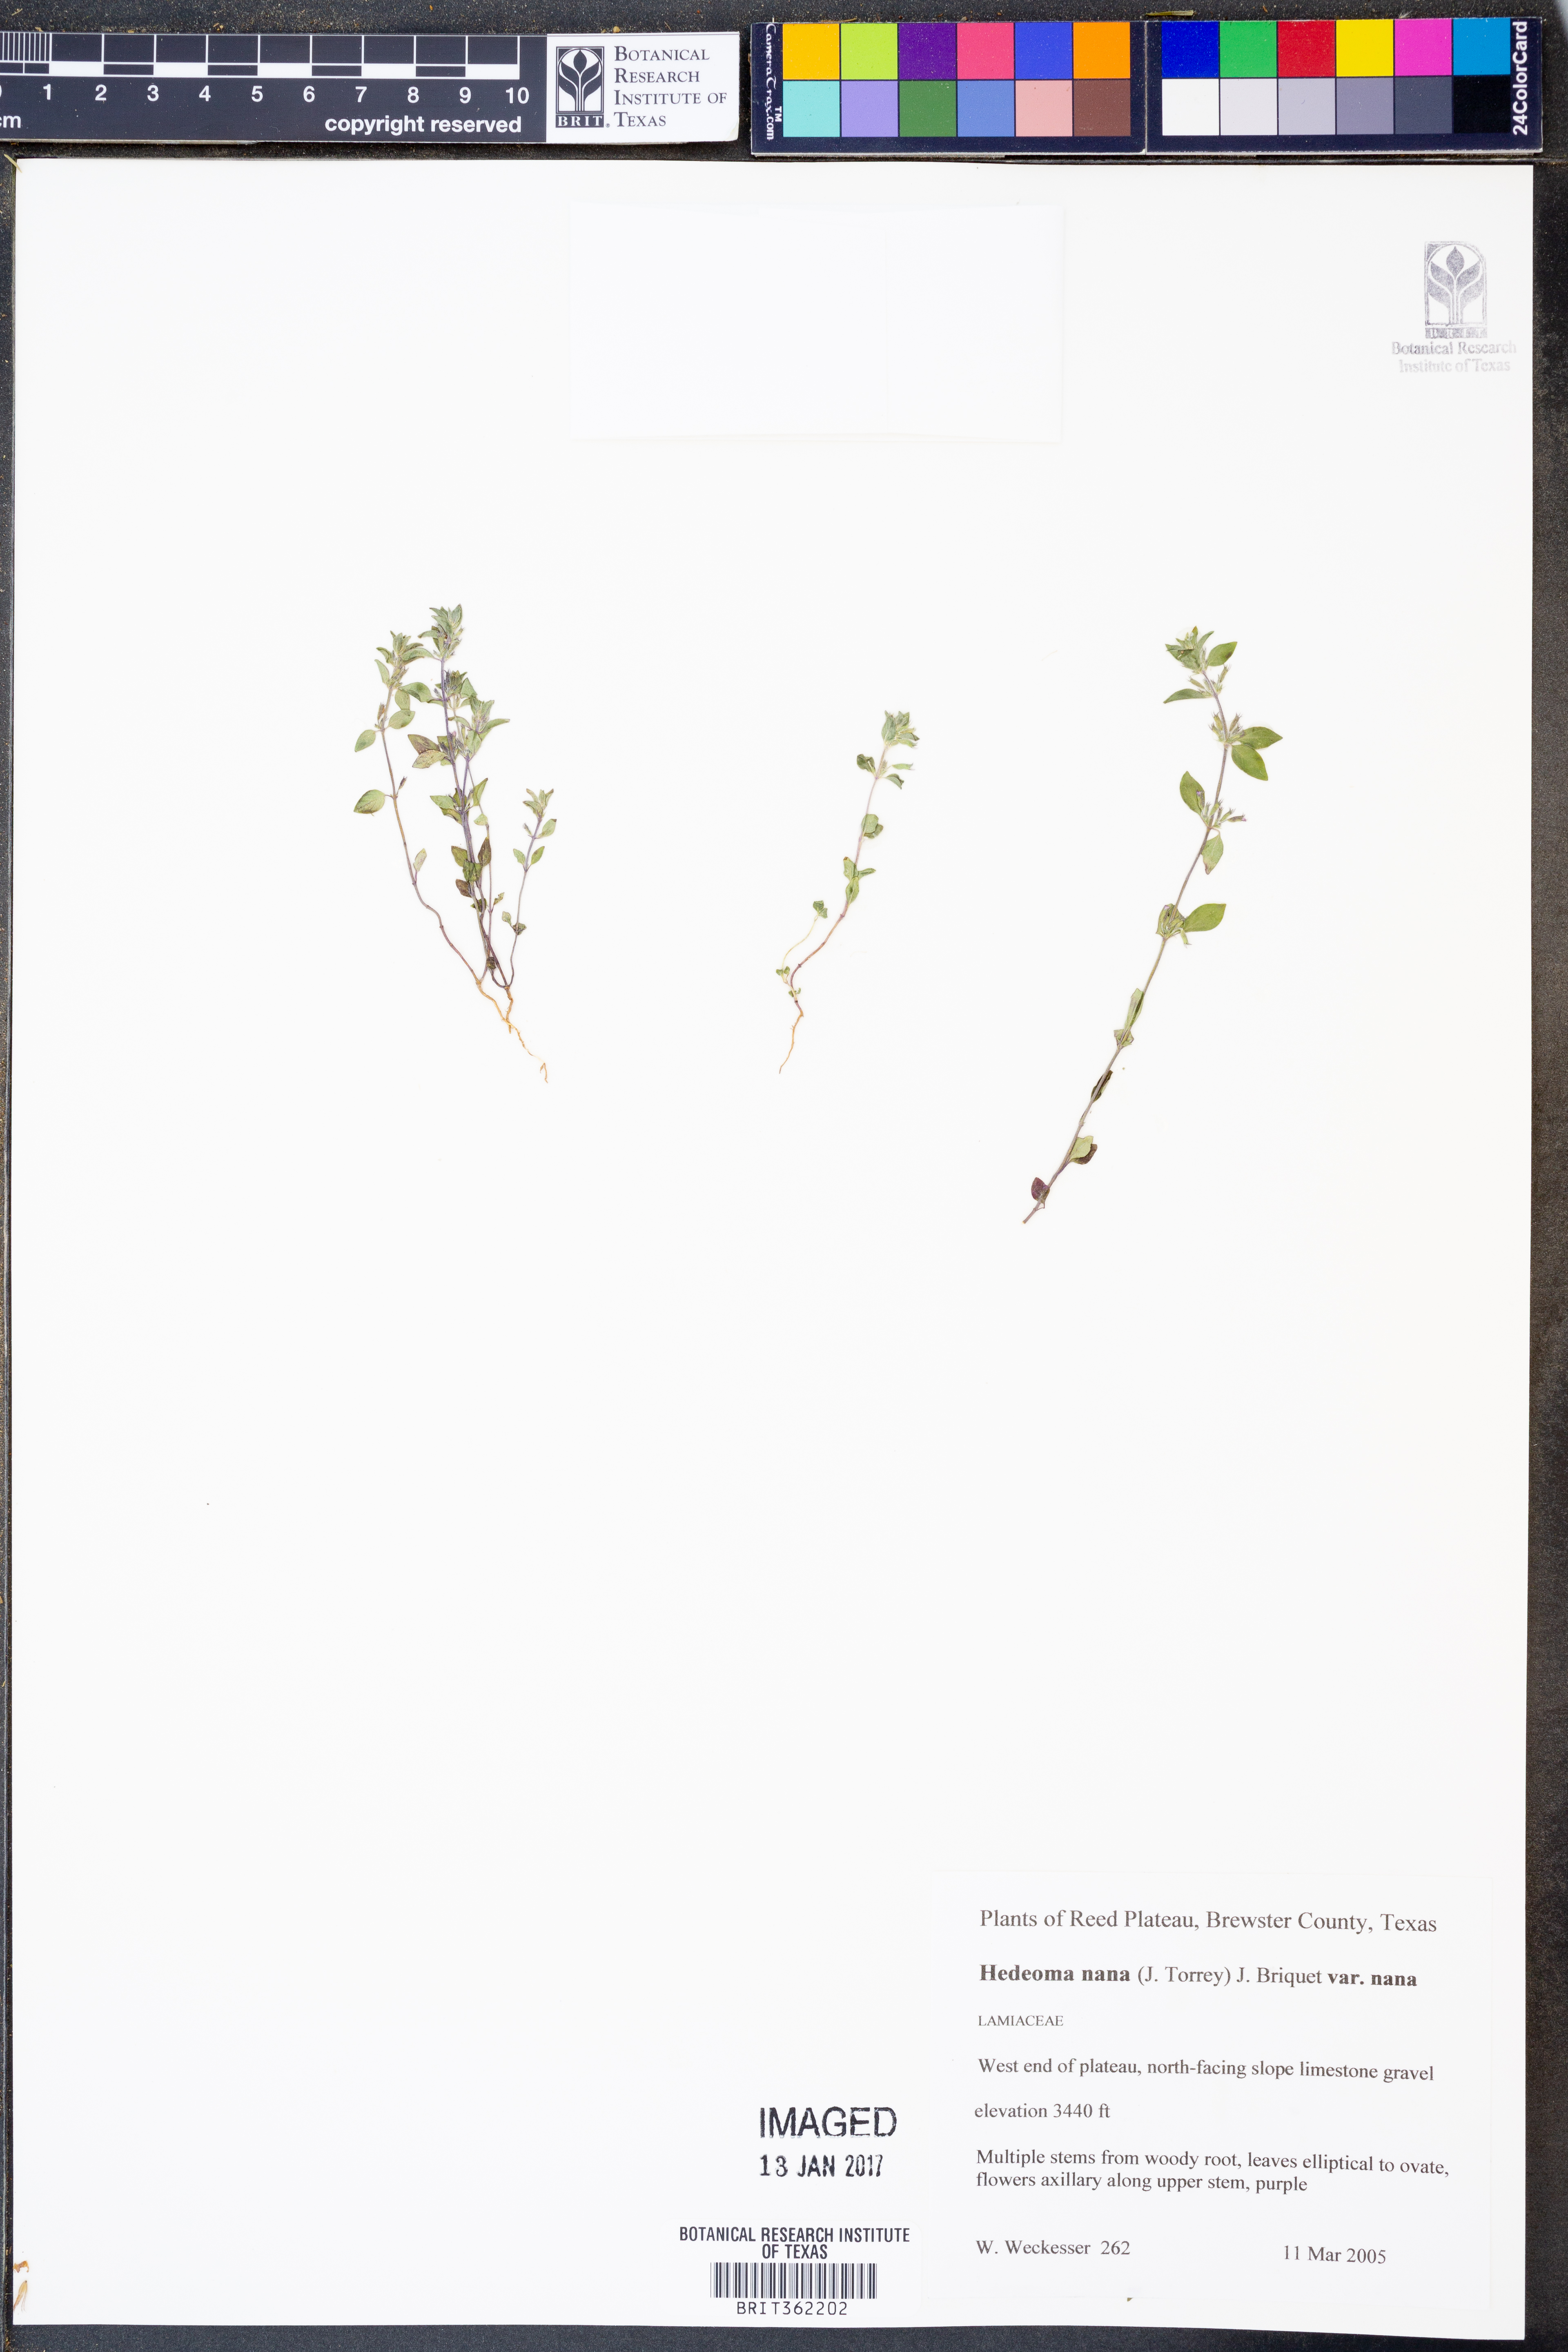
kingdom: Plantae
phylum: Tracheophyta
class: Magnoliopsida
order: Lamiales
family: Lamiaceae
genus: Hedeoma
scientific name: Hedeoma nana
